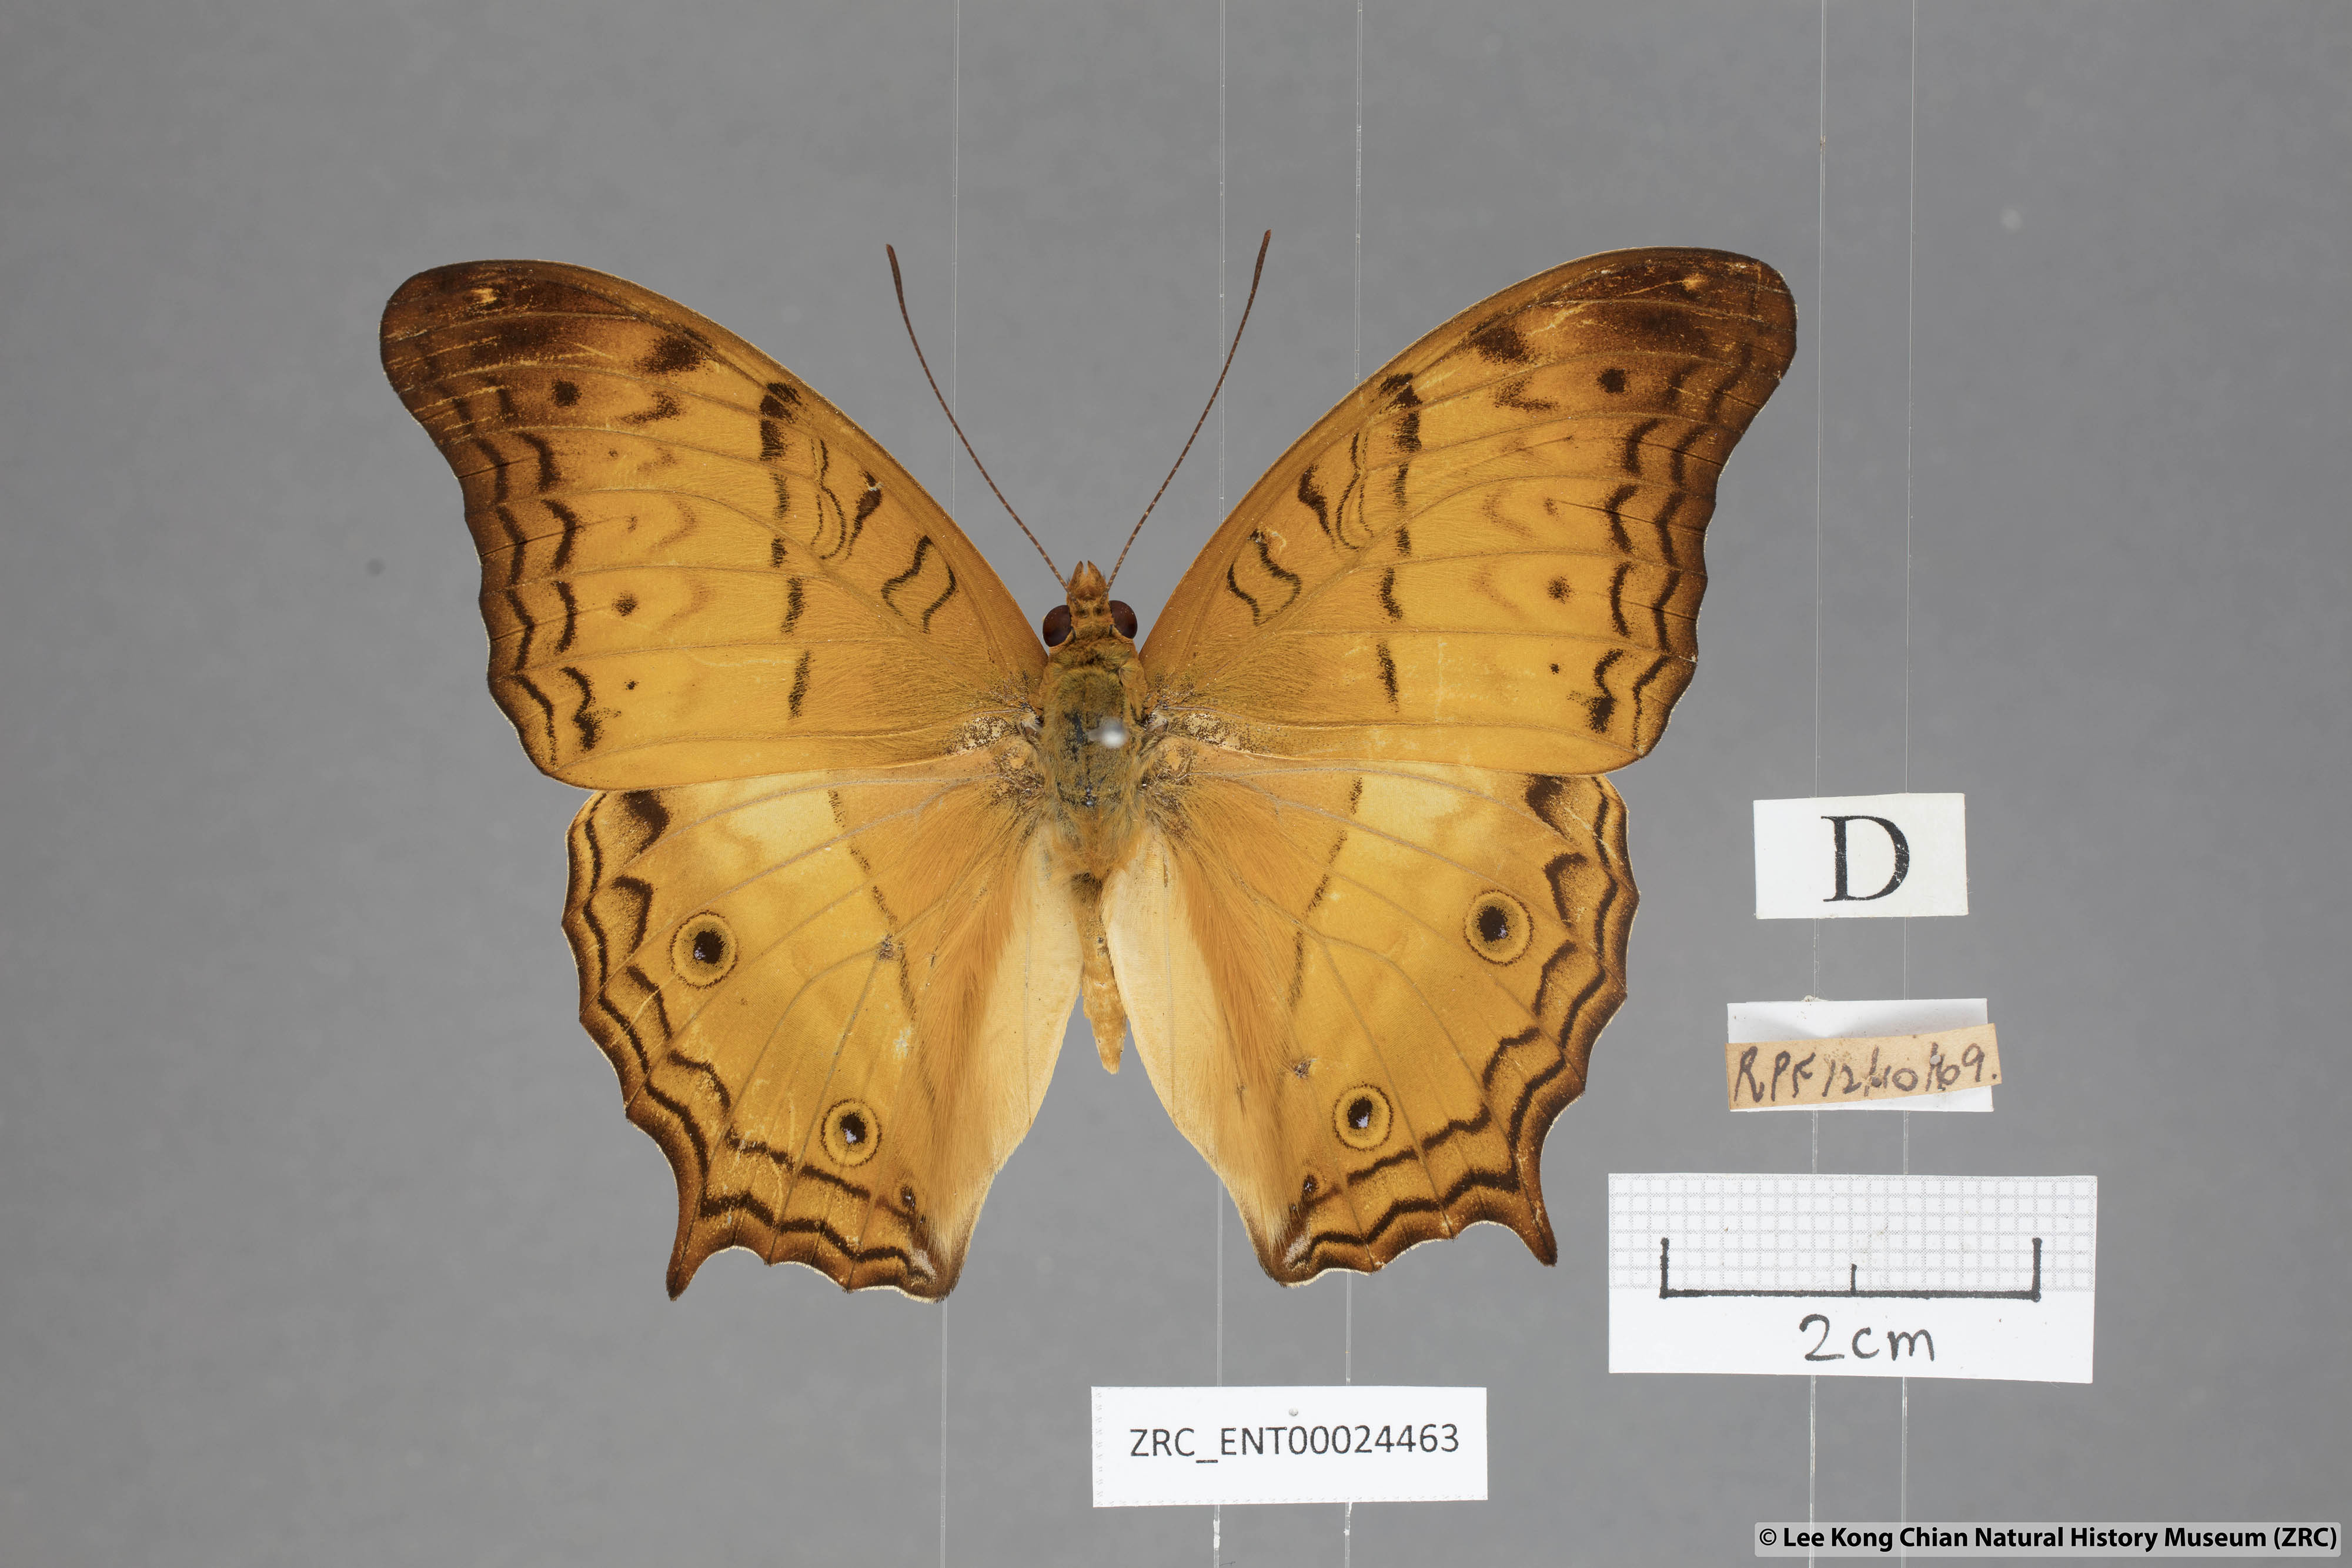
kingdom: Animalia
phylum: Arthropoda
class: Insecta
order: Lepidoptera
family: Nymphalidae
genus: Vindula
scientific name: Vindula deione
